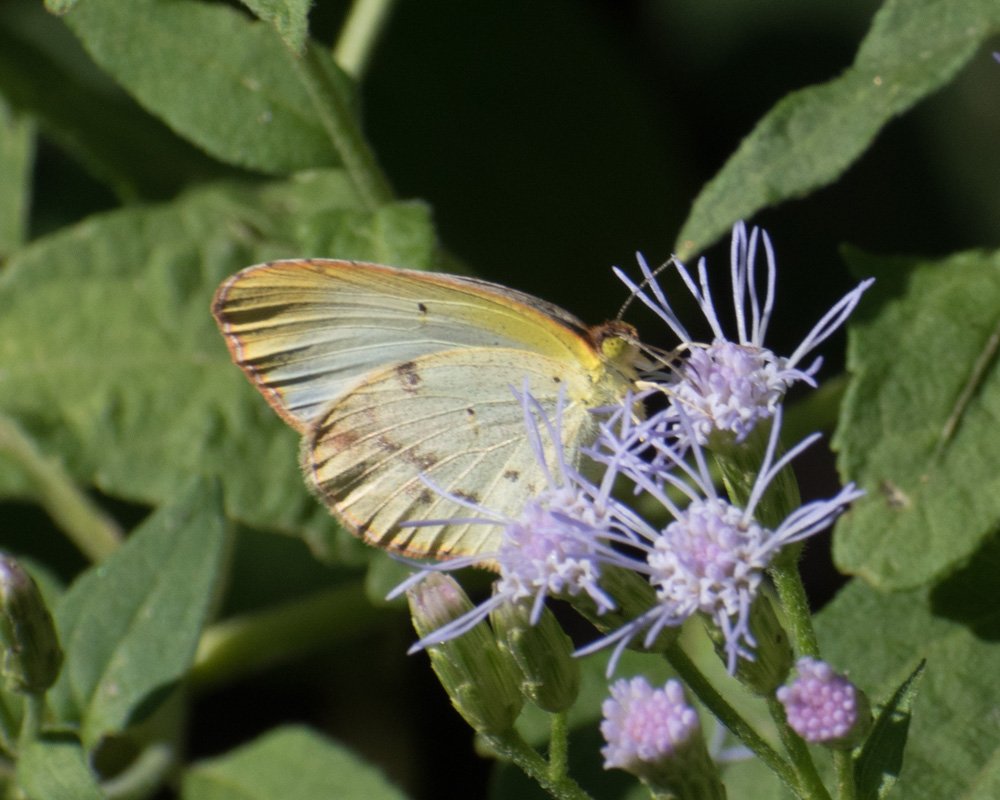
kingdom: Animalia
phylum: Arthropoda
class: Insecta
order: Lepidoptera
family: Pieridae
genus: Pyrisitia
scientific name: Pyrisitia lisa
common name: Little Yellow
